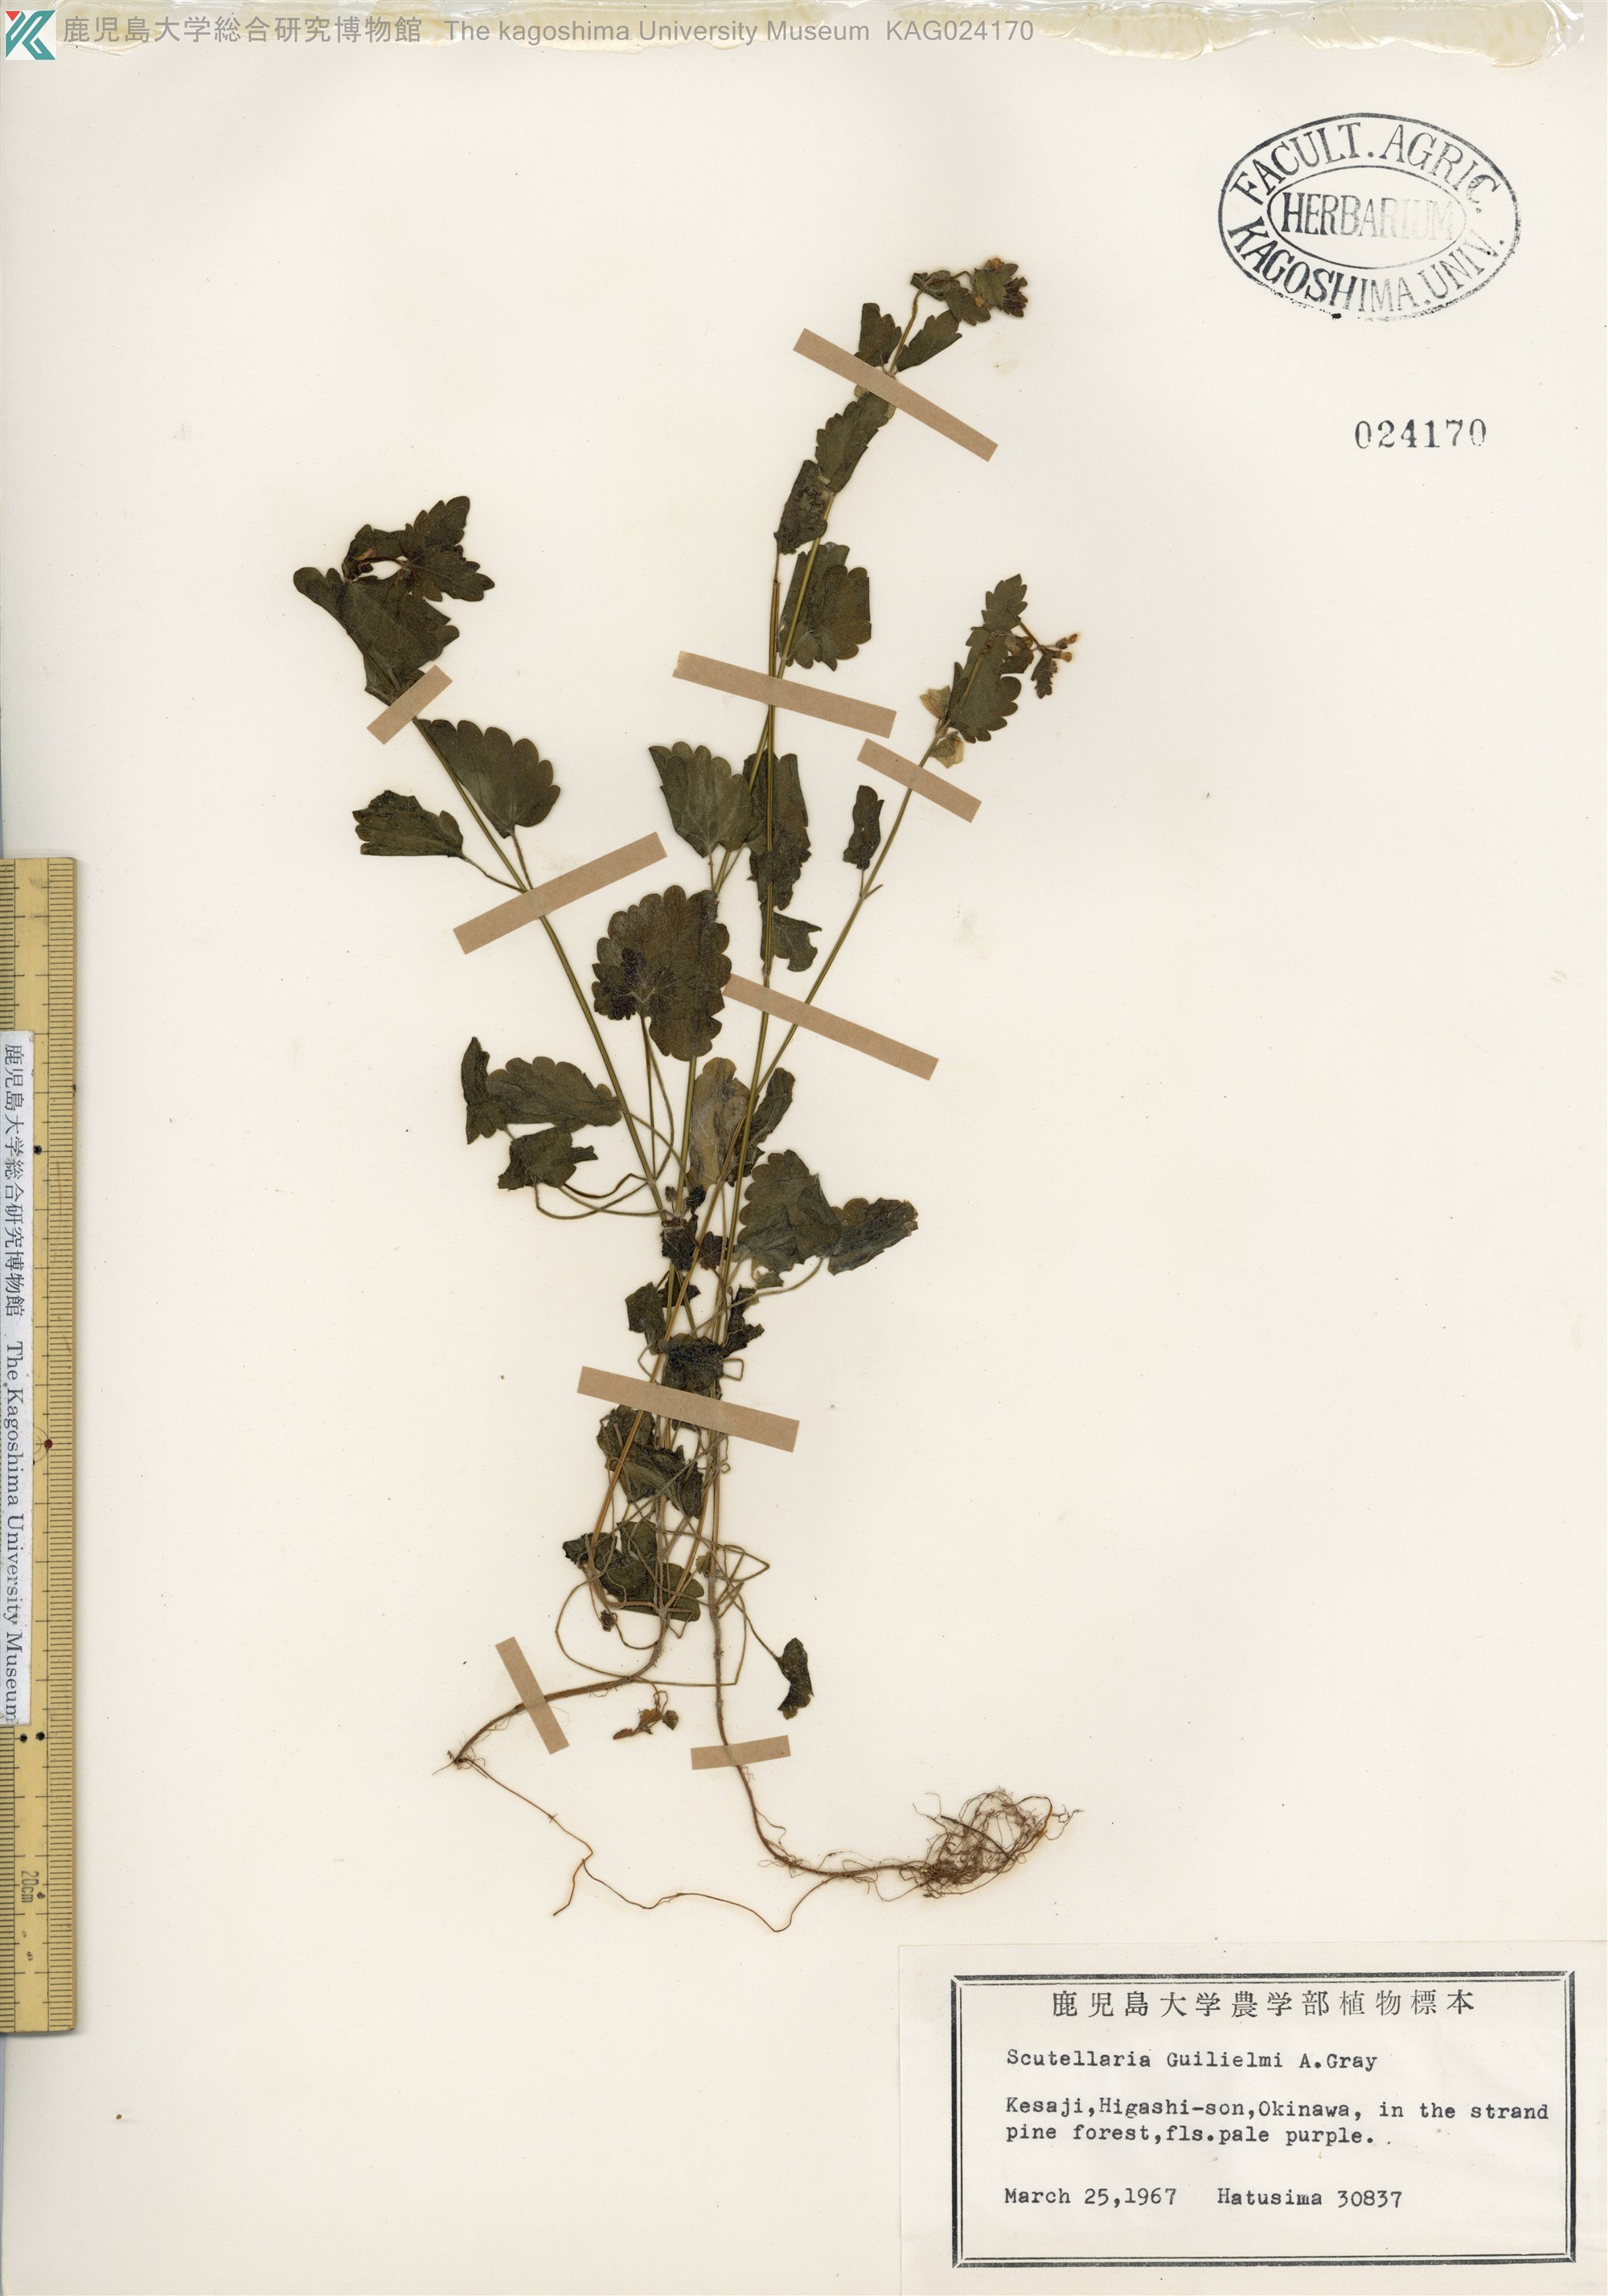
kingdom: Plantae
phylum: Tracheophyta
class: Magnoliopsida
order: Lamiales
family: Lamiaceae
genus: Scutellaria
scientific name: Scutellaria guilielmi
